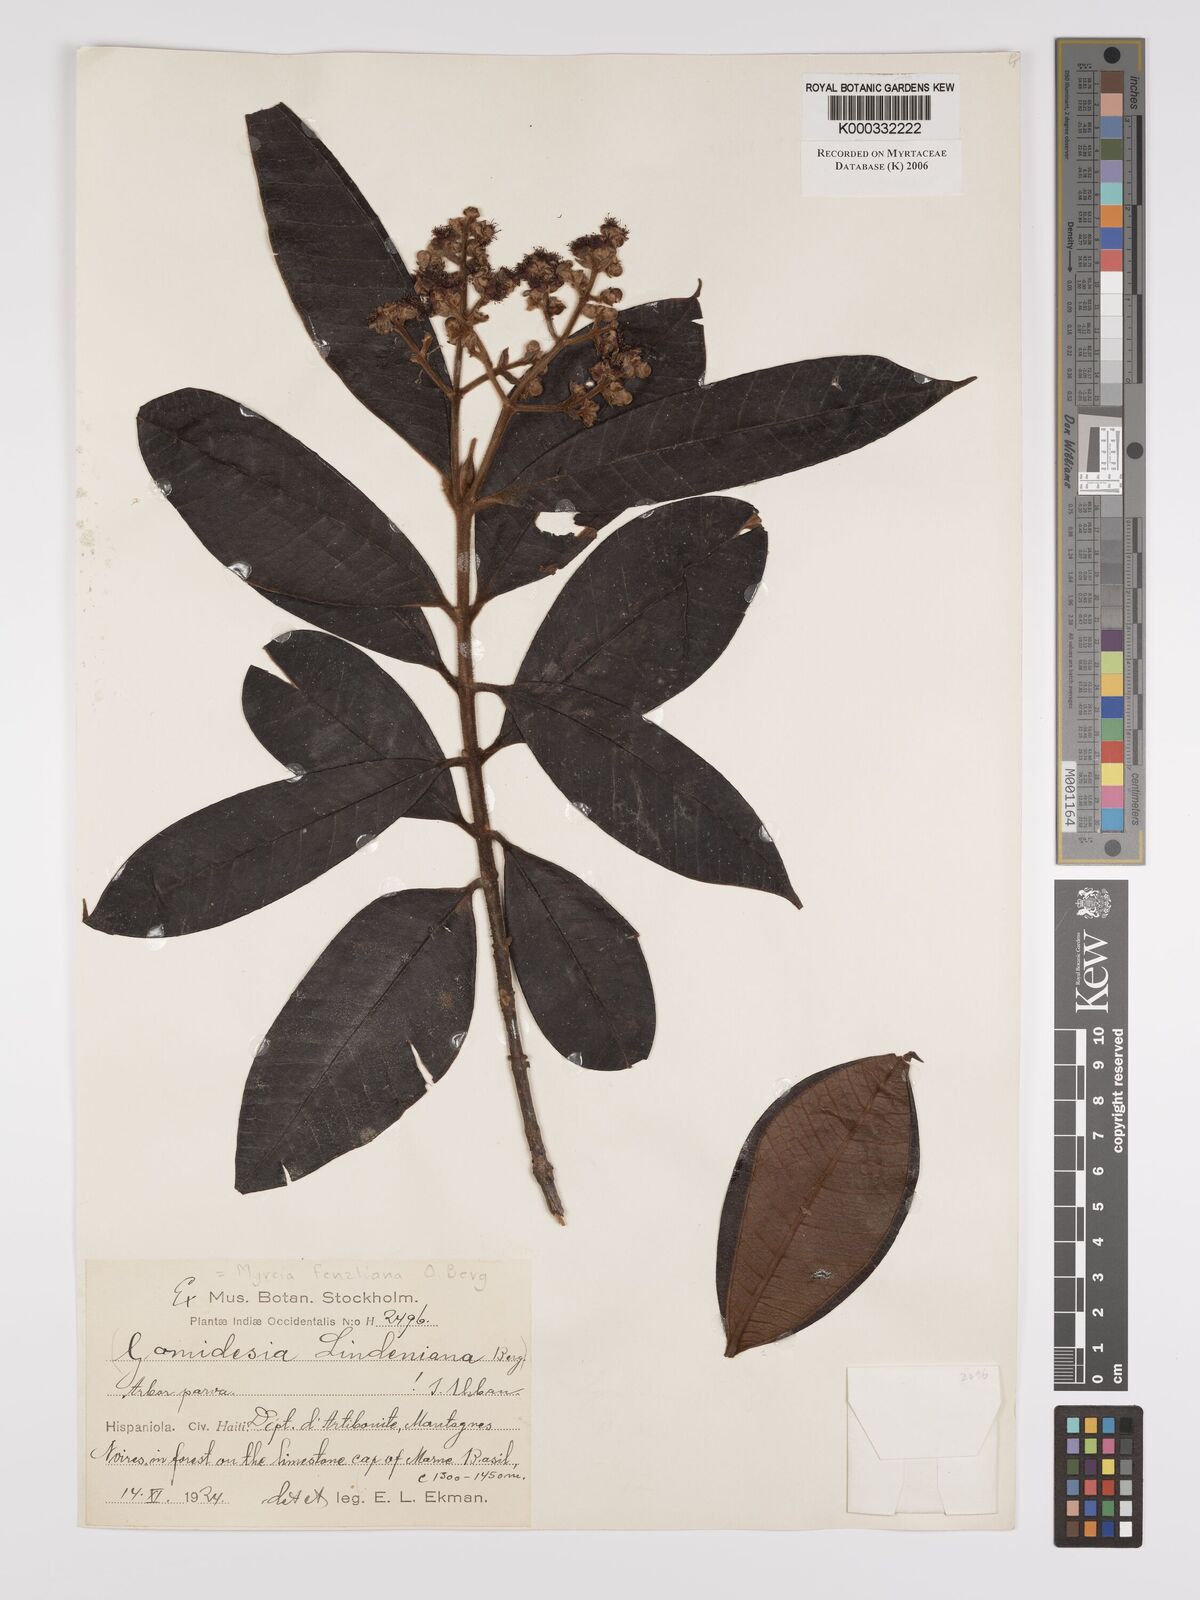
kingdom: Plantae
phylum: Tracheophyta
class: Magnoliopsida
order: Myrtales
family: Myrtaceae
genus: Myrcia
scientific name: Myrcia fenzliana
